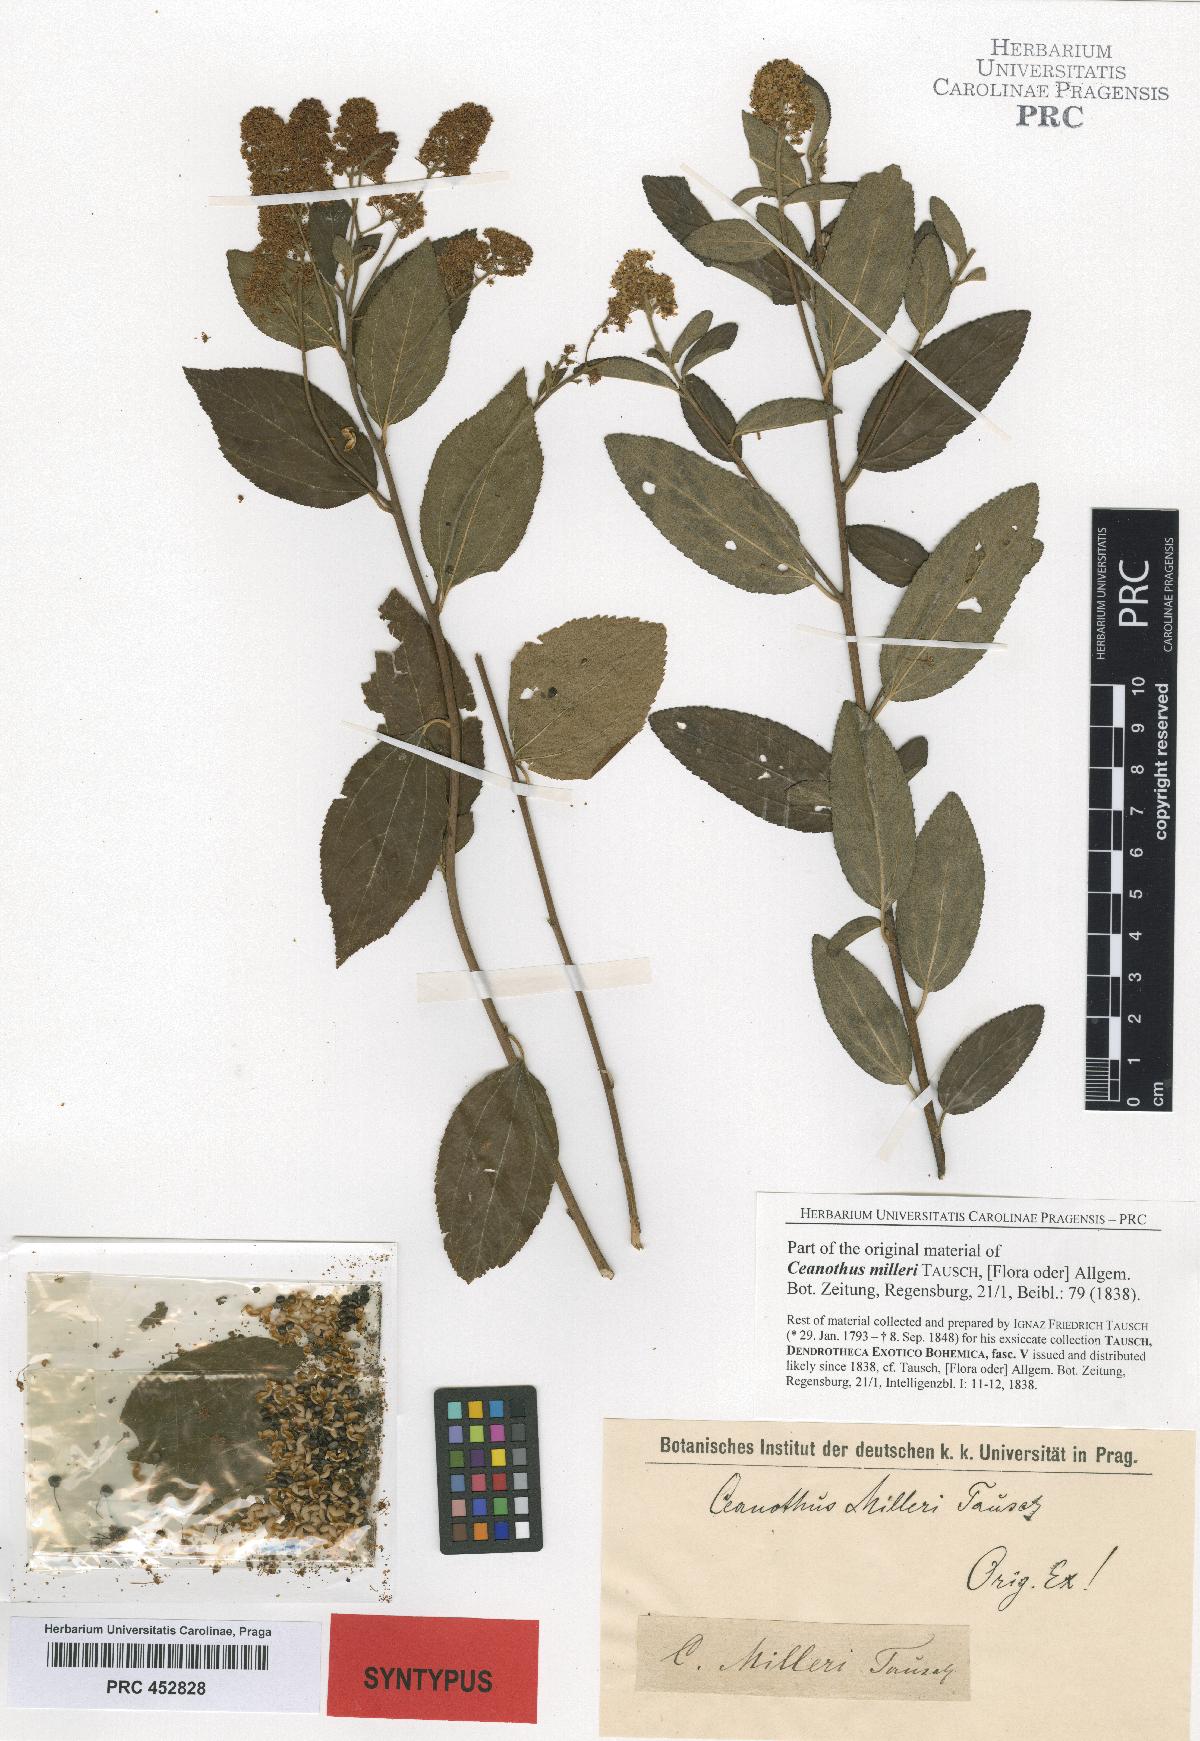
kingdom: Plantae
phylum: Tracheophyta
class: Magnoliopsida
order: Rosales
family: Rhamnaceae
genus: Ceanothus
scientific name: Ceanothus americanus
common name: Redroot
